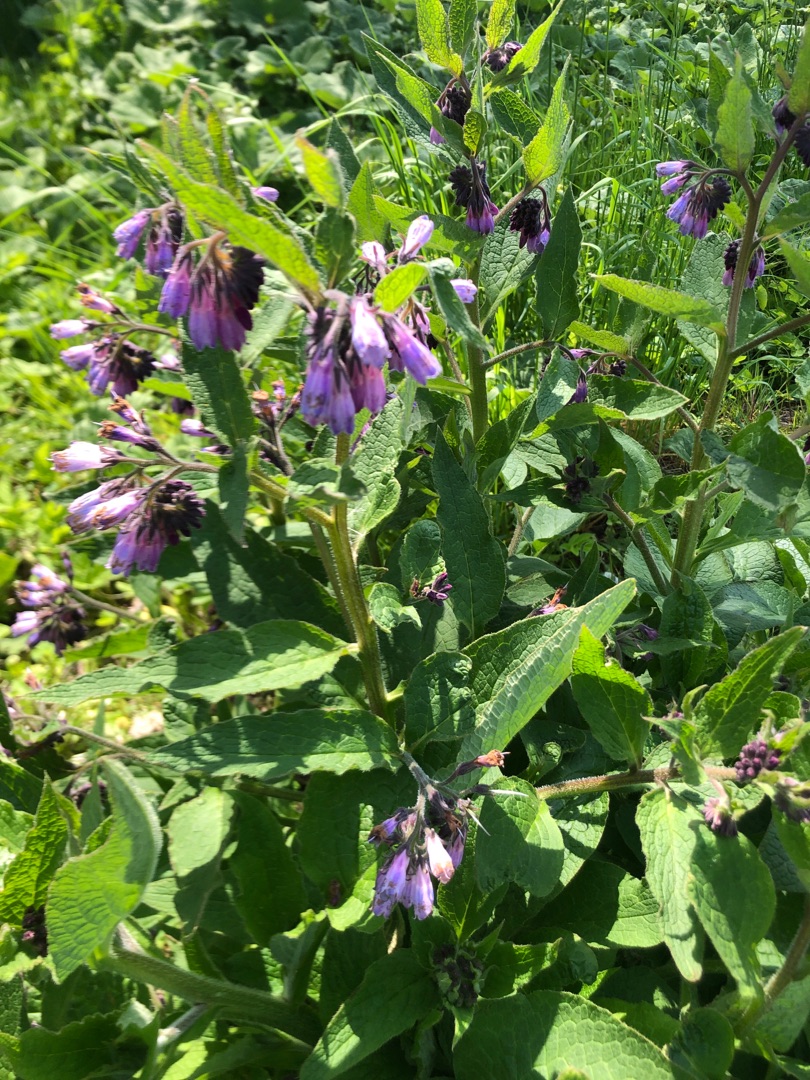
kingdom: Plantae
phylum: Tracheophyta
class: Magnoliopsida
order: Boraginales
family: Boraginaceae
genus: Symphytum
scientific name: Symphytum uplandicum
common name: Foder-kulsukker
